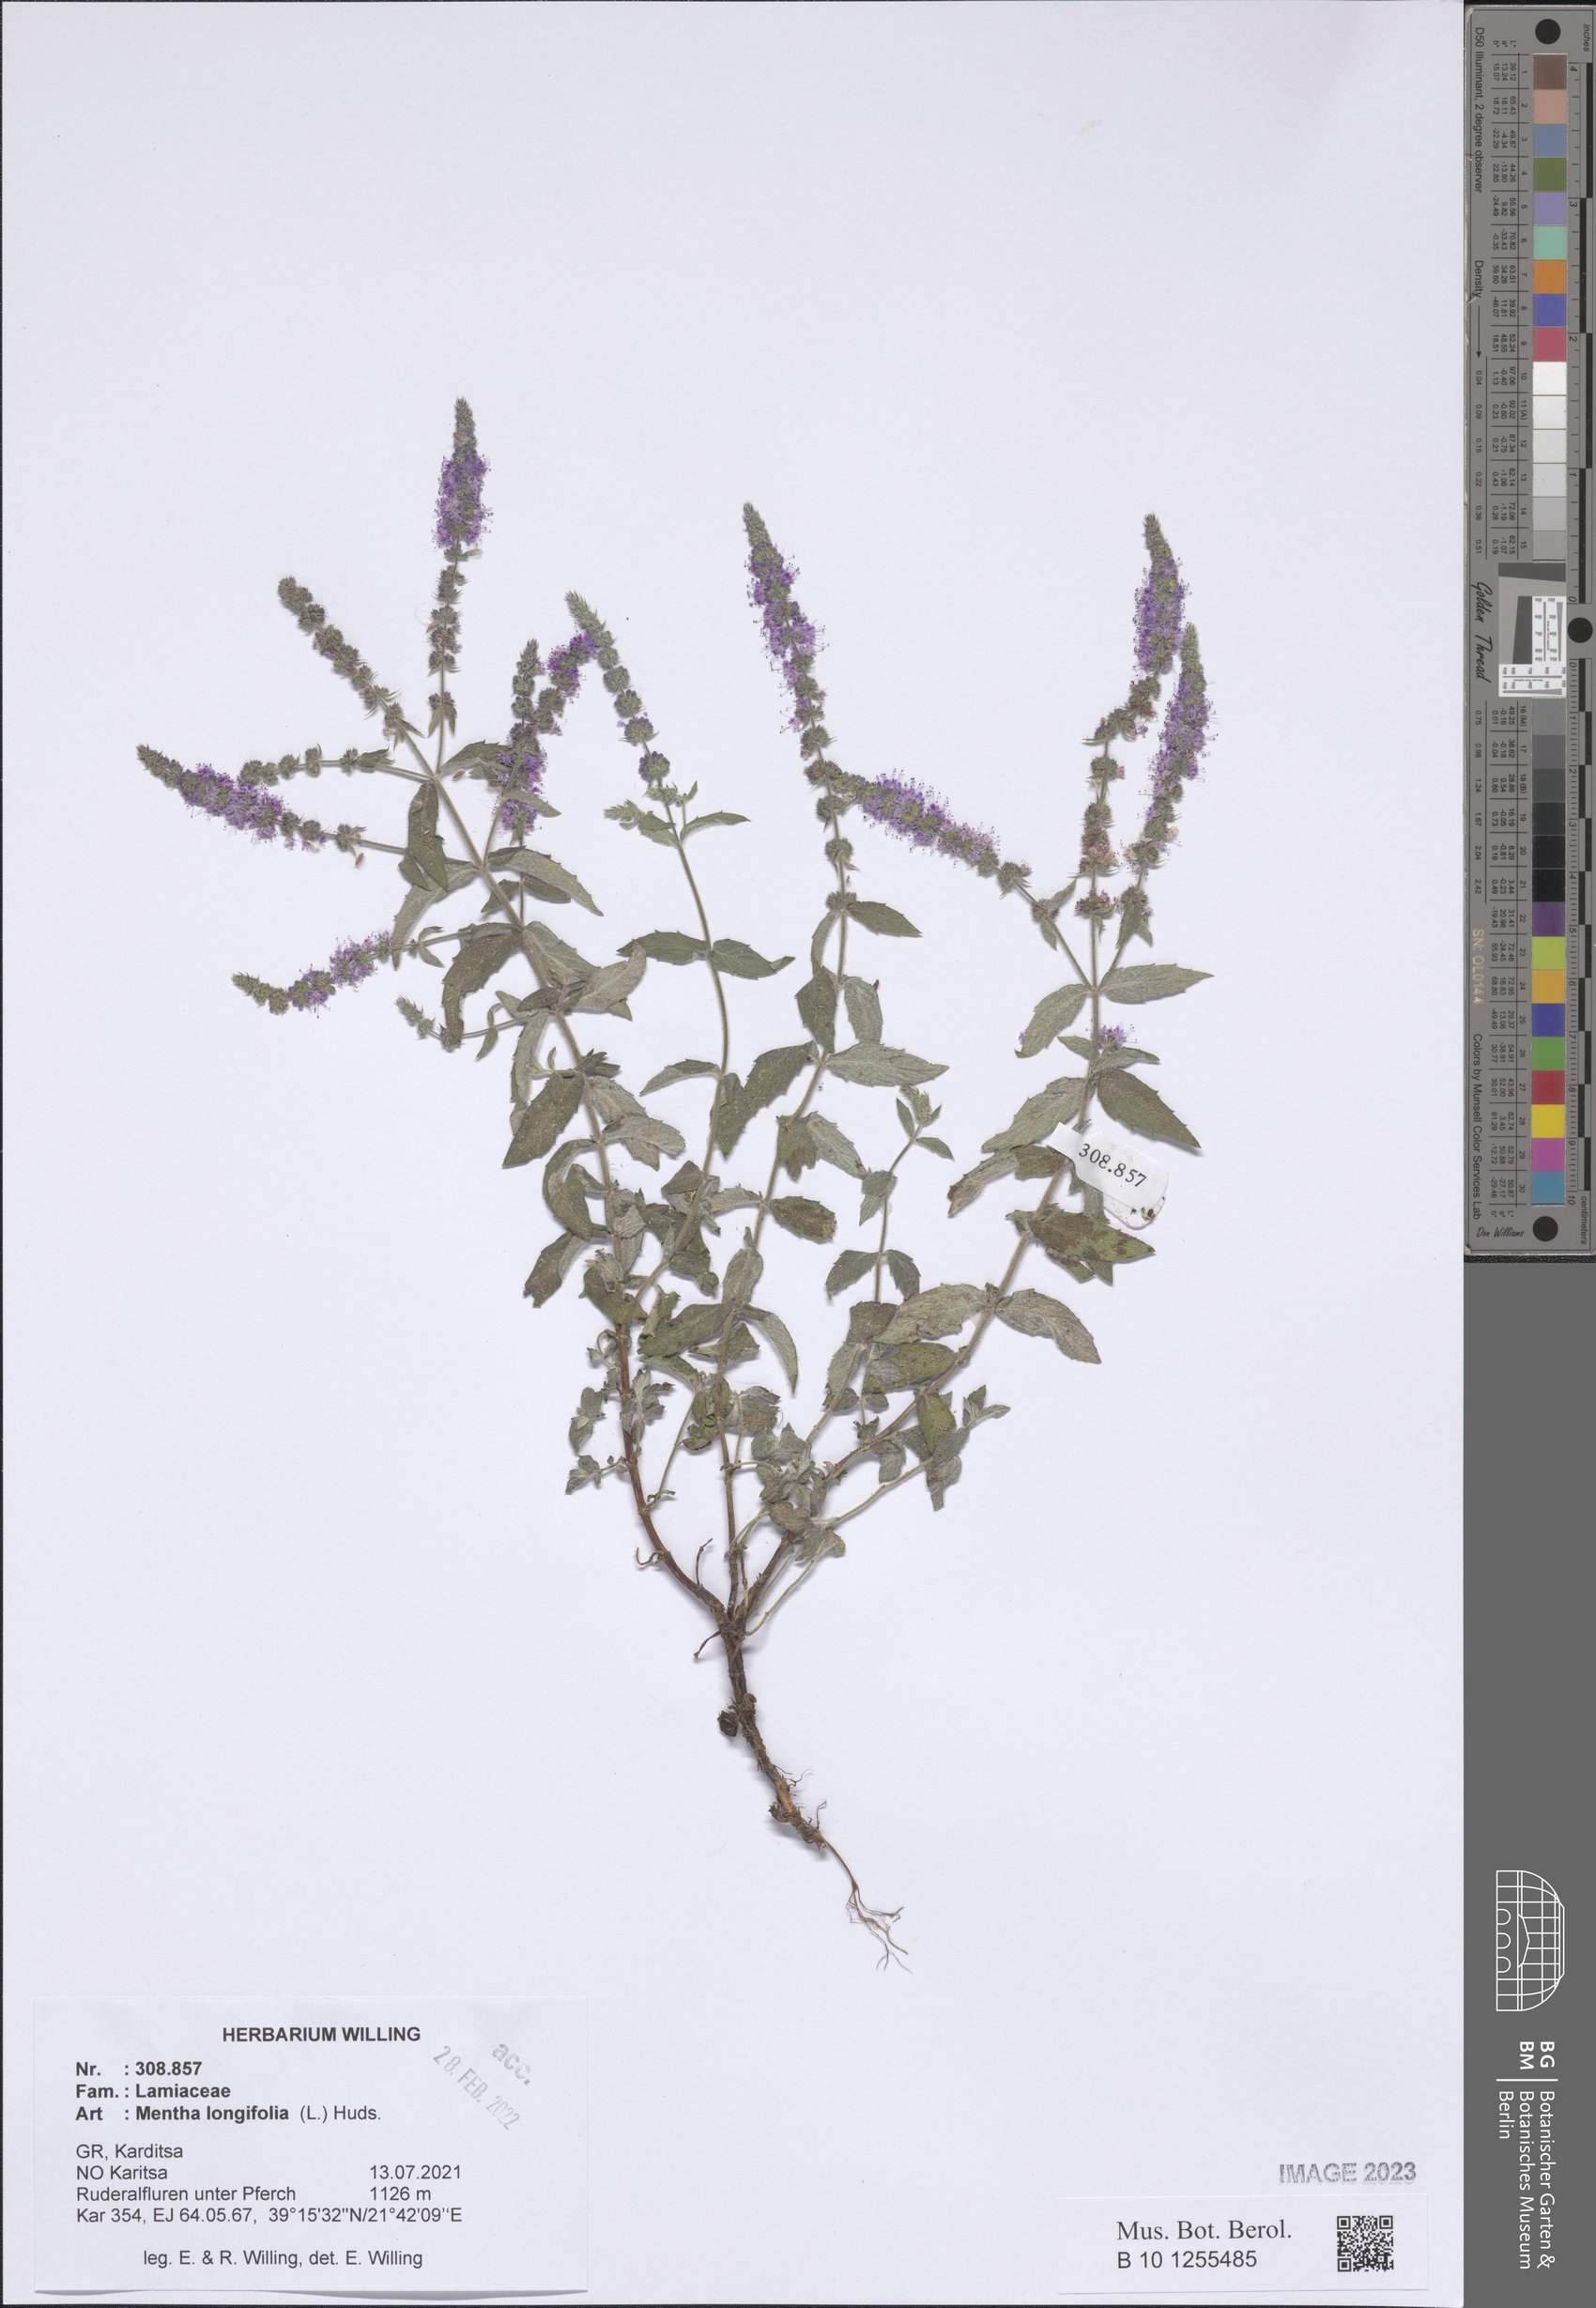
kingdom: Plantae
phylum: Tracheophyta
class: Magnoliopsida
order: Lamiales
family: Lamiaceae
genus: Mentha
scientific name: Mentha longifolia
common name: Horse mint
